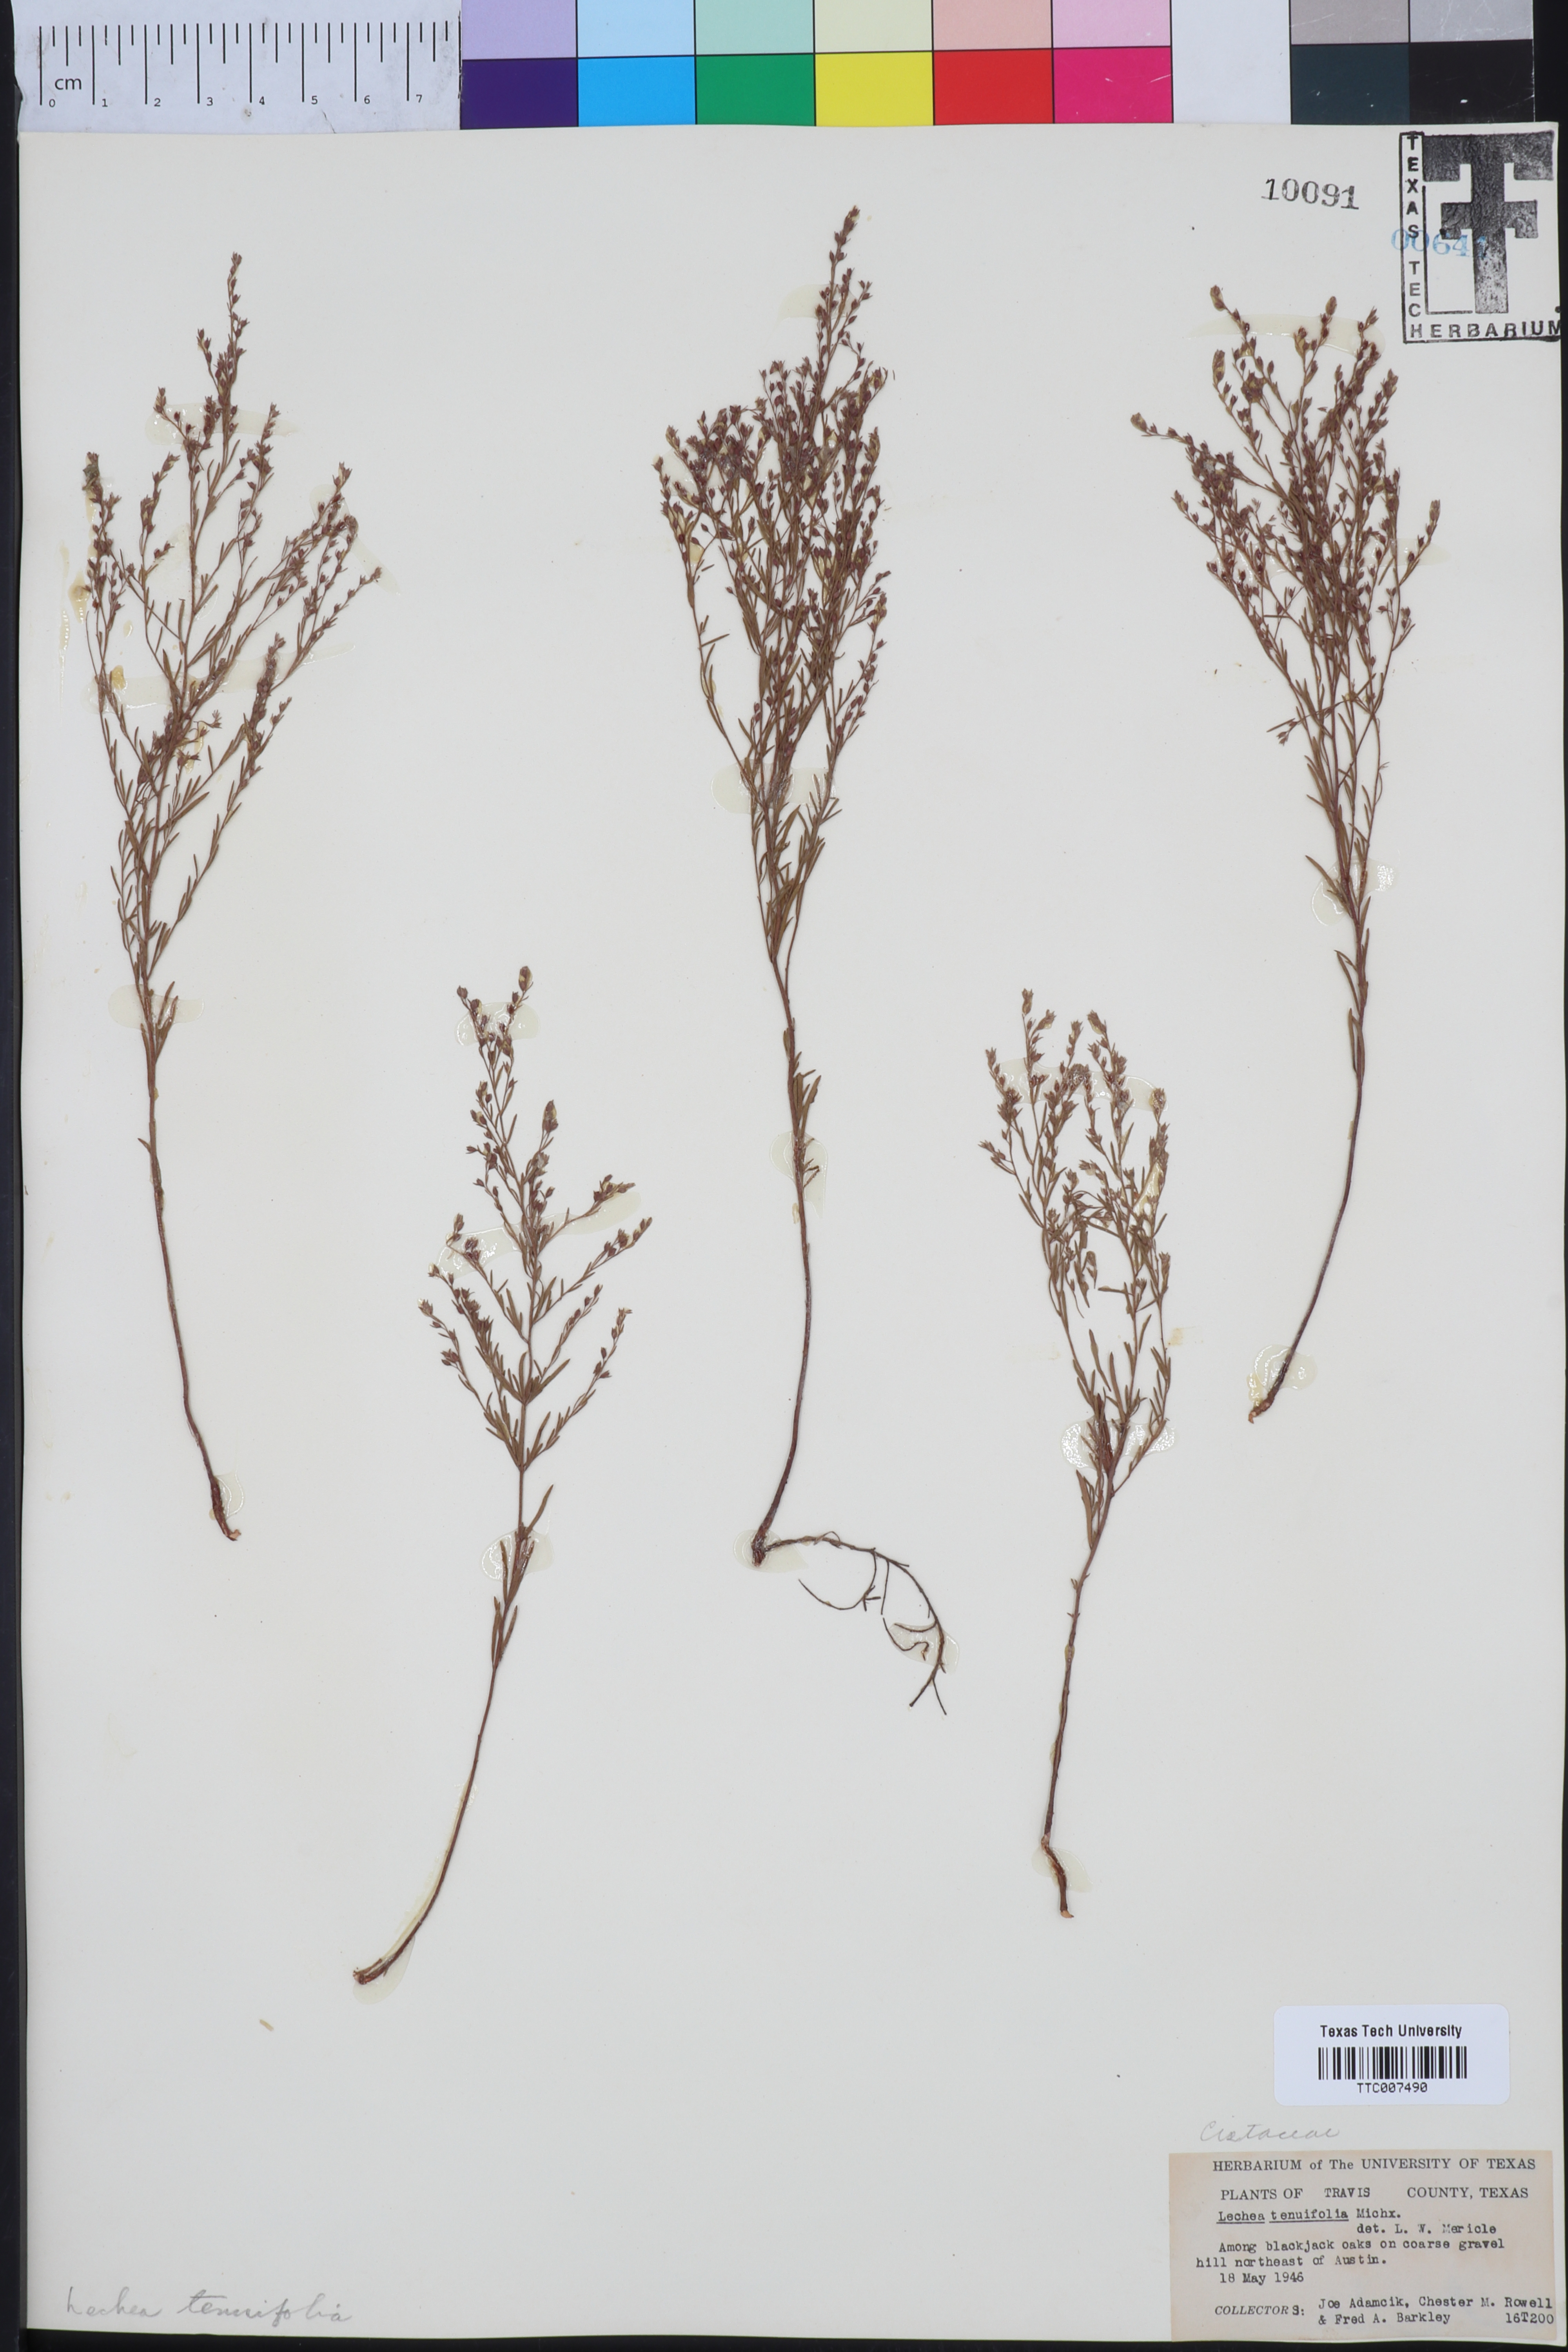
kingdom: Plantae
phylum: Tracheophyta
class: Magnoliopsida
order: Malvales
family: Cistaceae
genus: Lechea
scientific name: Lechea tenuifolia
